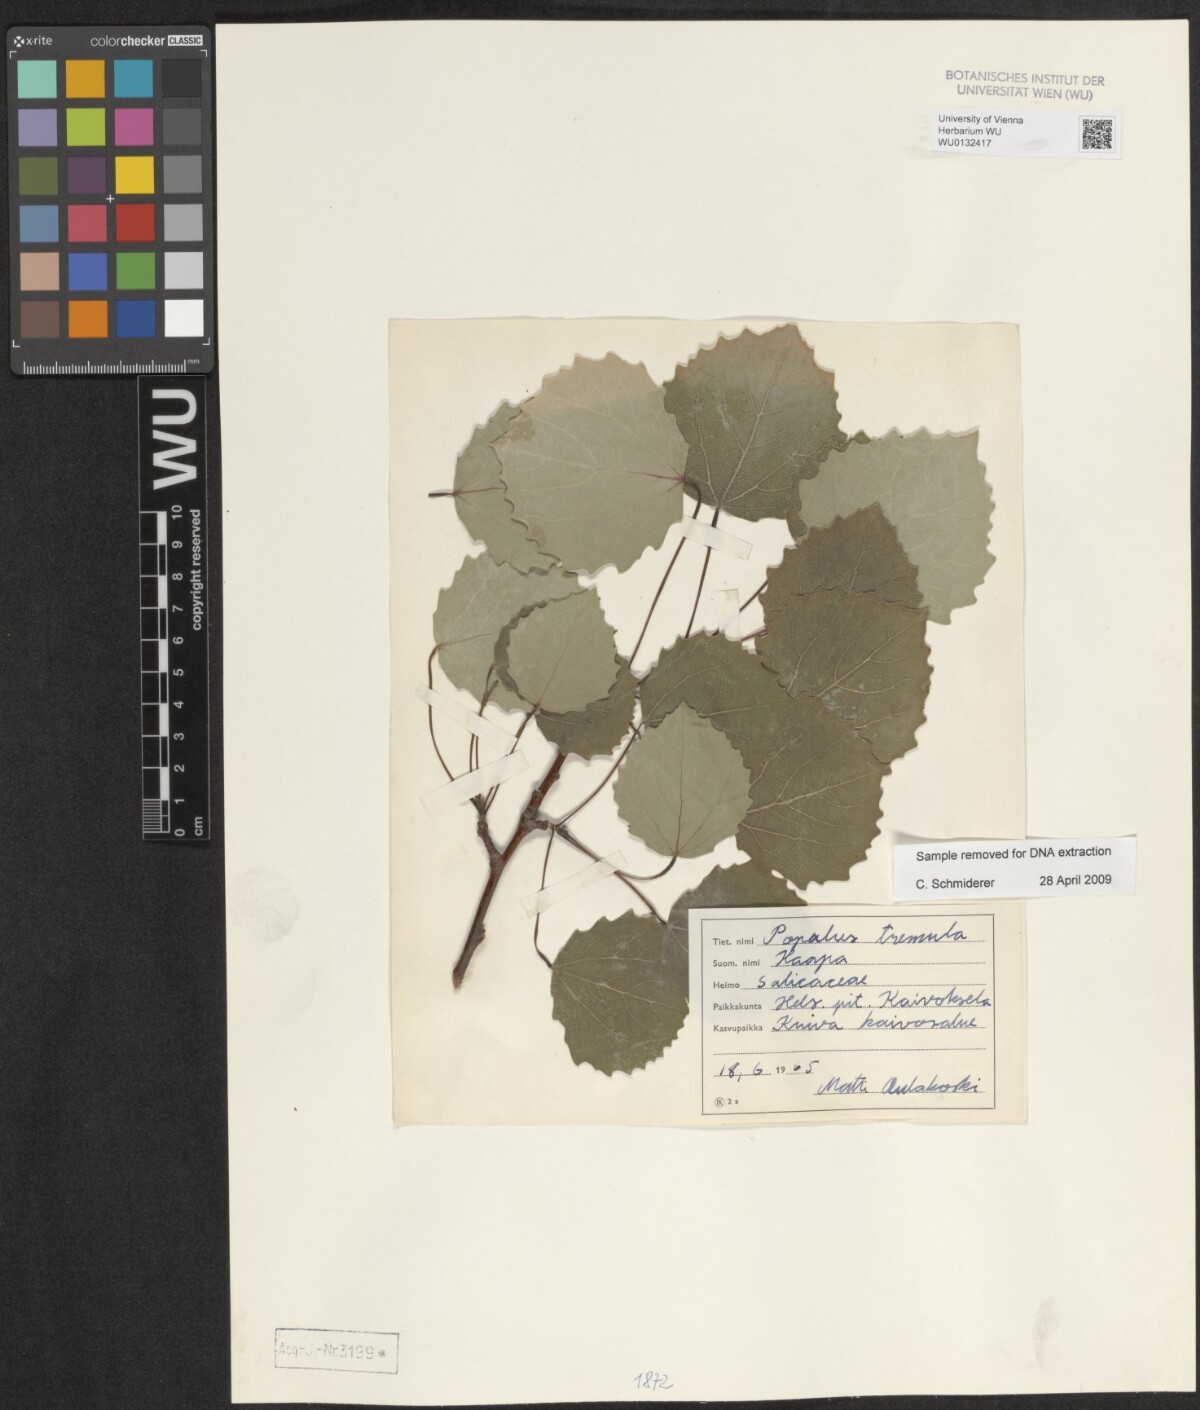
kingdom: Plantae
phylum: Tracheophyta
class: Magnoliopsida
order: Malpighiales
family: Salicaceae
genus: Populus
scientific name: Populus tremula
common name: European aspen
